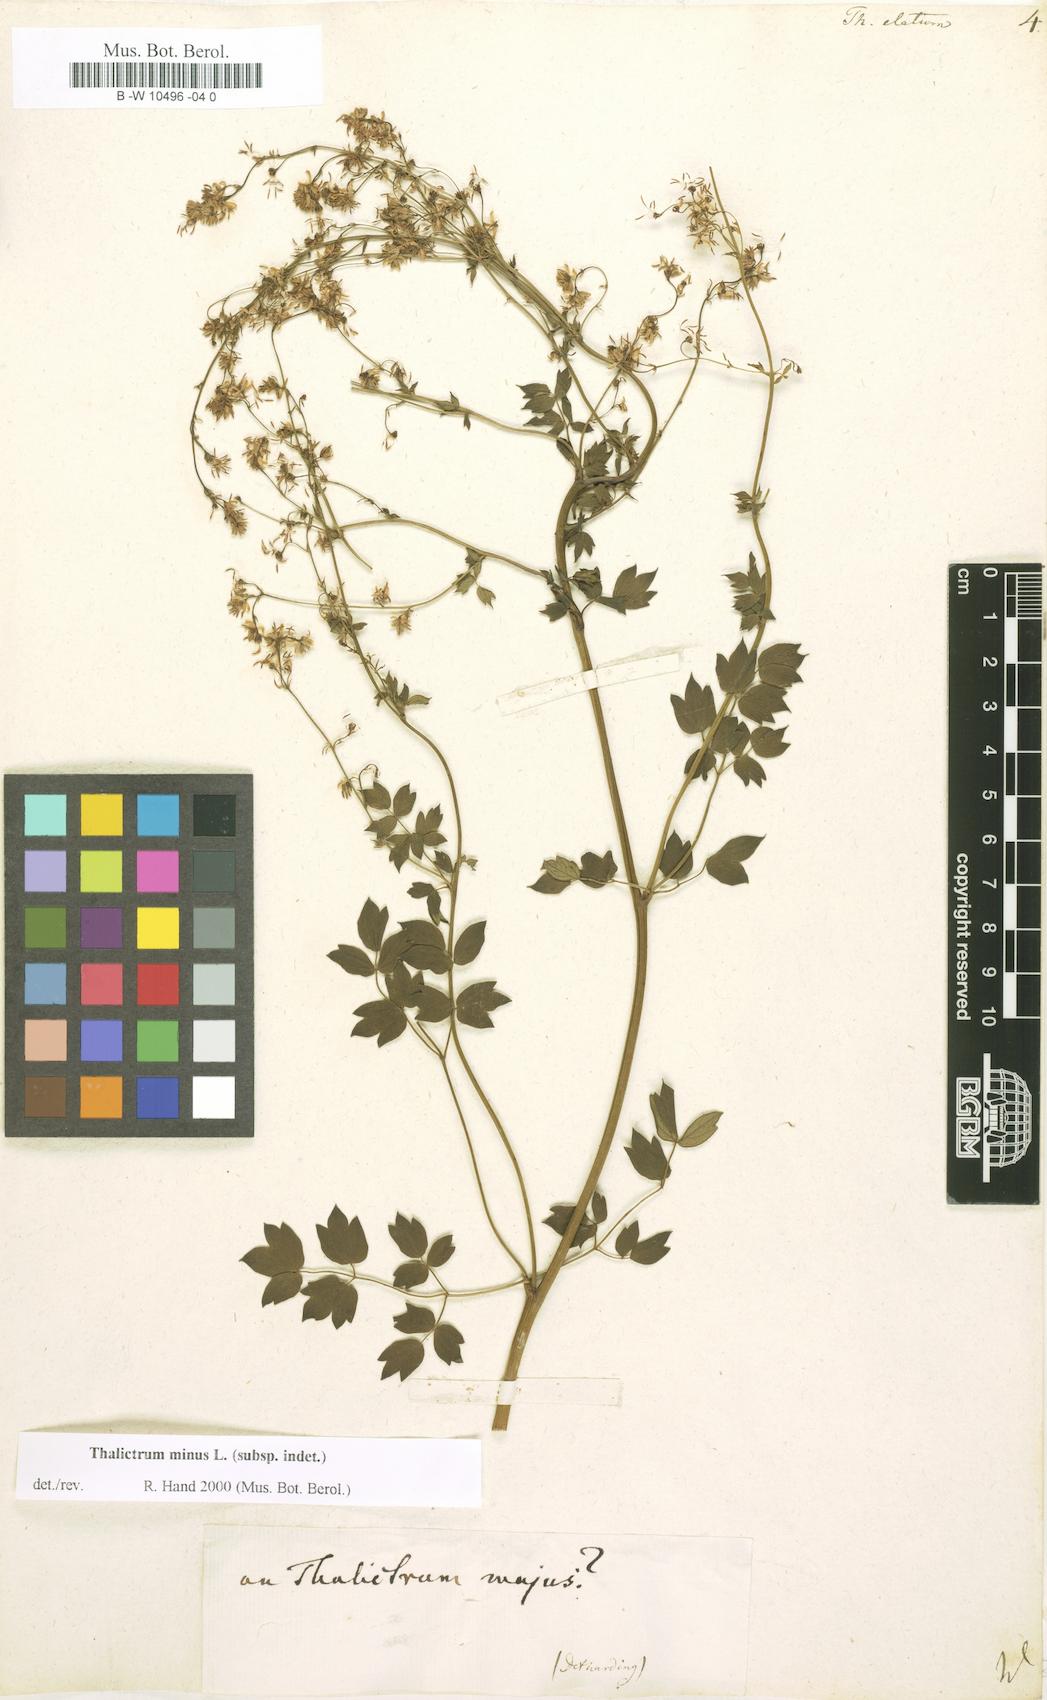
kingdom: Plantae
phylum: Tracheophyta
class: Magnoliopsida
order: Ranunculales
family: Ranunculaceae
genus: Thalictrum
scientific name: Thalictrum minus
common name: Lesser meadow-rue
